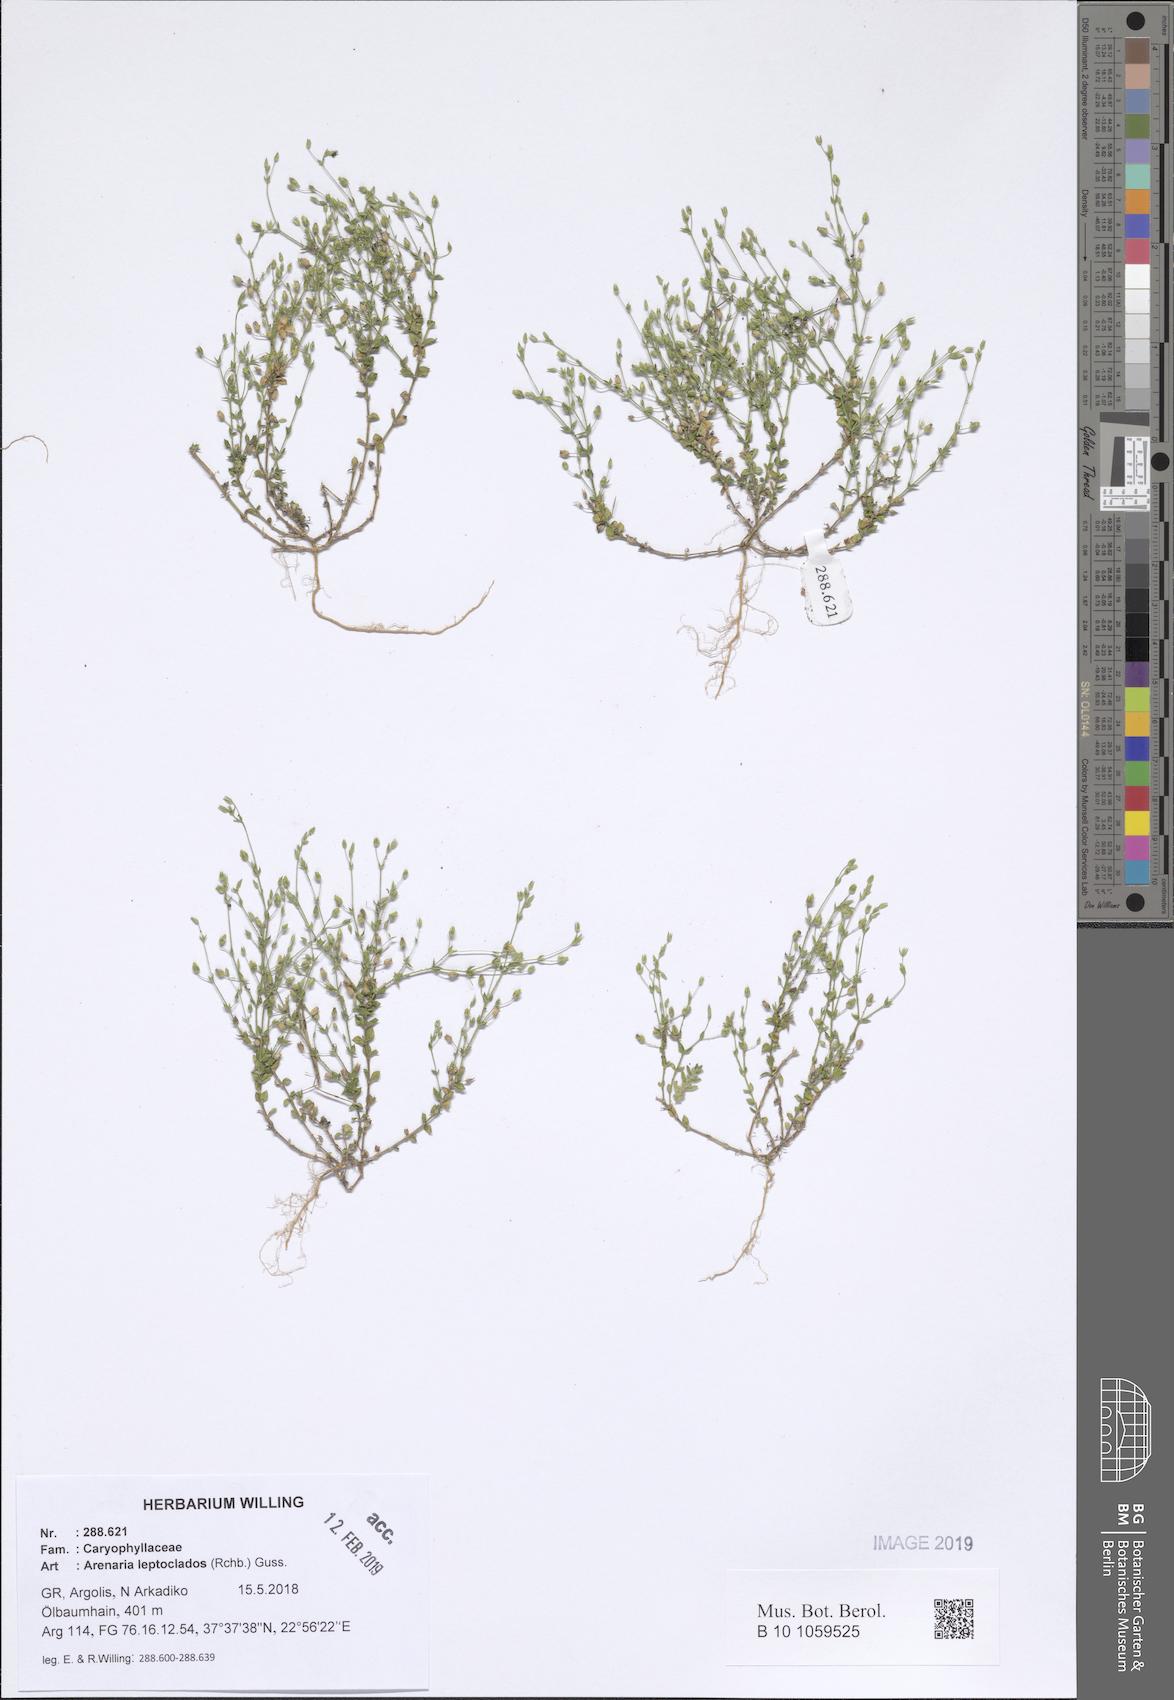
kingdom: Plantae
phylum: Tracheophyta
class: Magnoliopsida
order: Caryophyllales
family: Caryophyllaceae
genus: Arenaria
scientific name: Arenaria leptoclados
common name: Thyme-leaved sandwort
